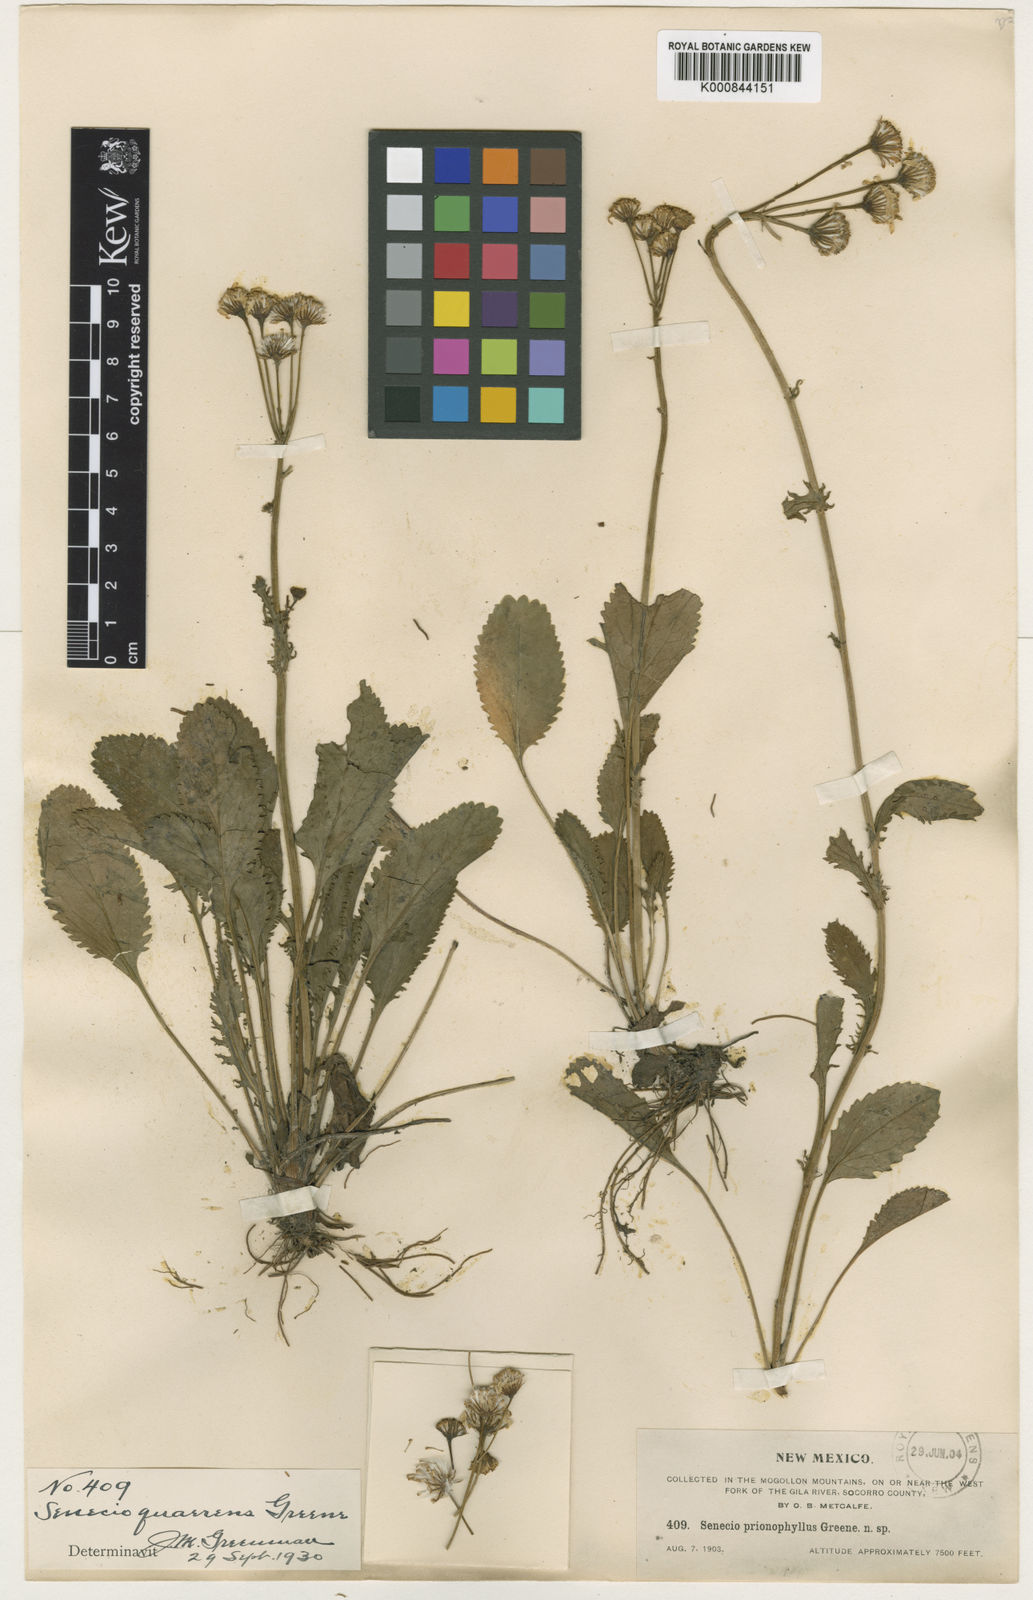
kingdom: Plantae
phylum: Tracheophyta
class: Magnoliopsida
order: Asterales
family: Asteraceae
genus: Packera
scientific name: Packera
